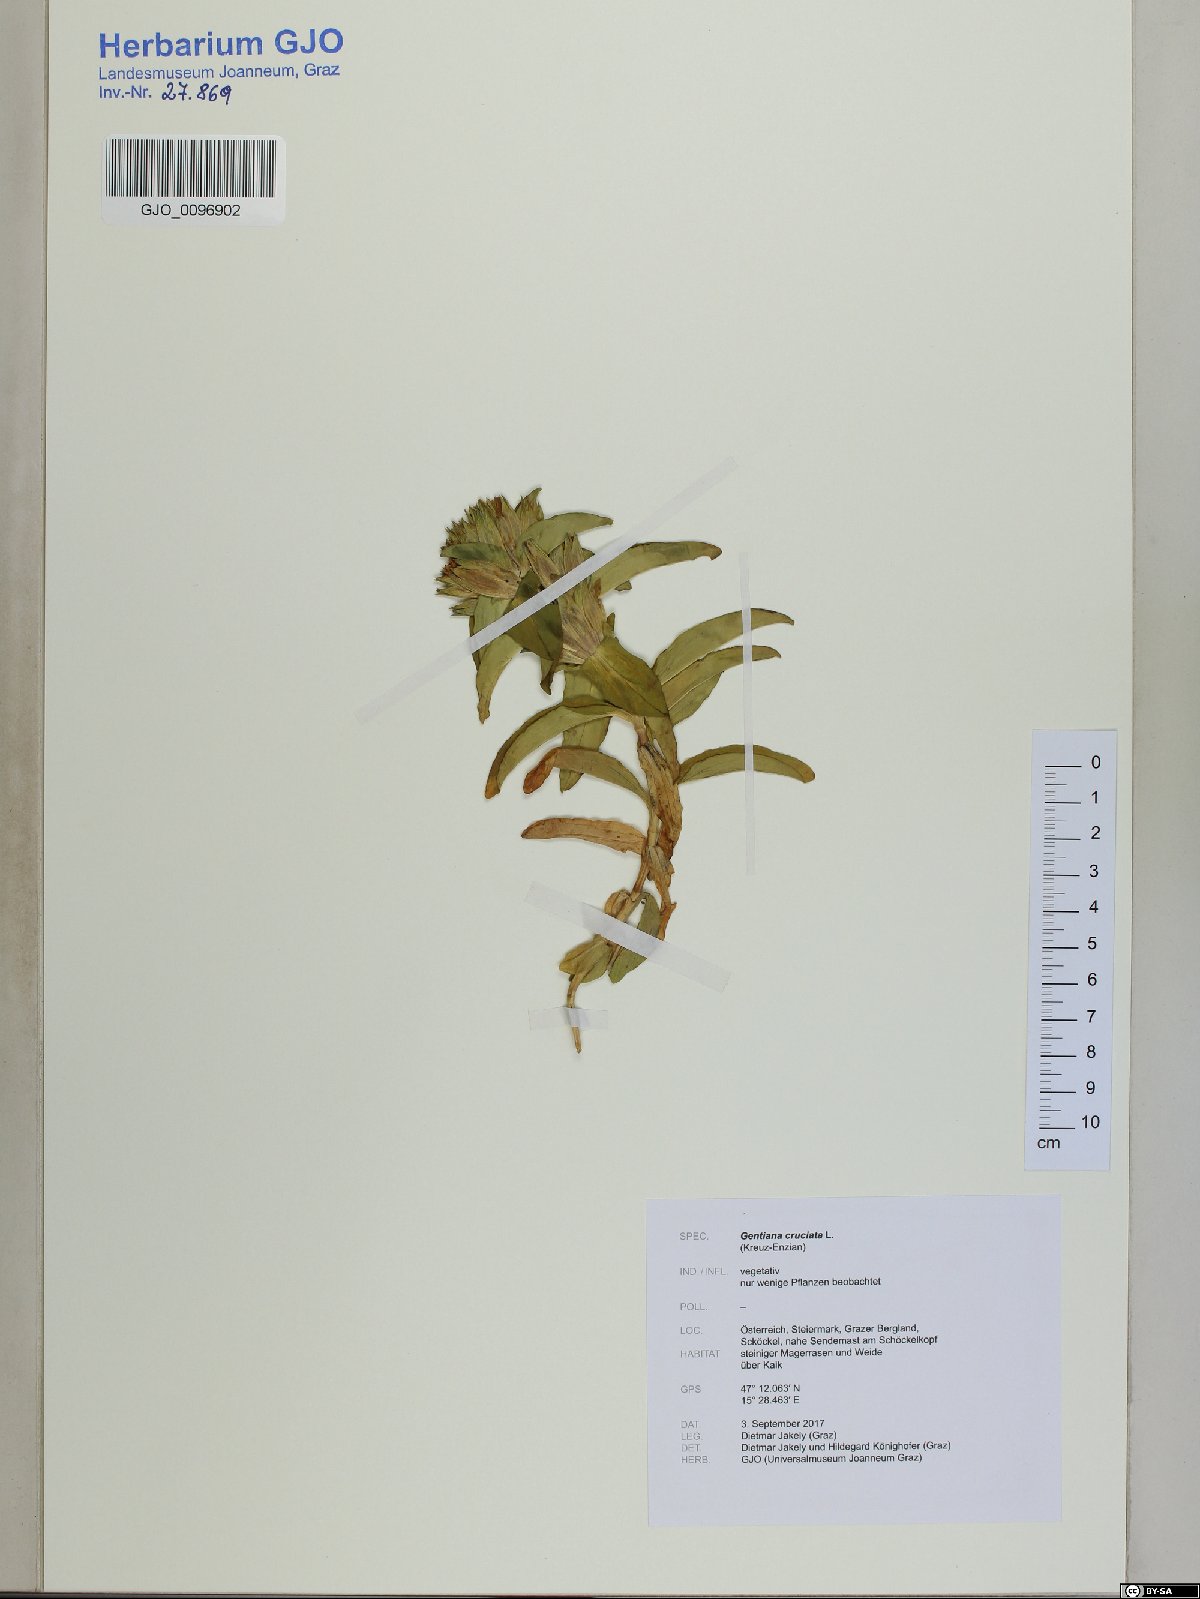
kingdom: Plantae
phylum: Tracheophyta
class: Magnoliopsida
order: Gentianales
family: Gentianaceae
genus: Gentiana
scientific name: Gentiana cruciata
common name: Cross gentian
